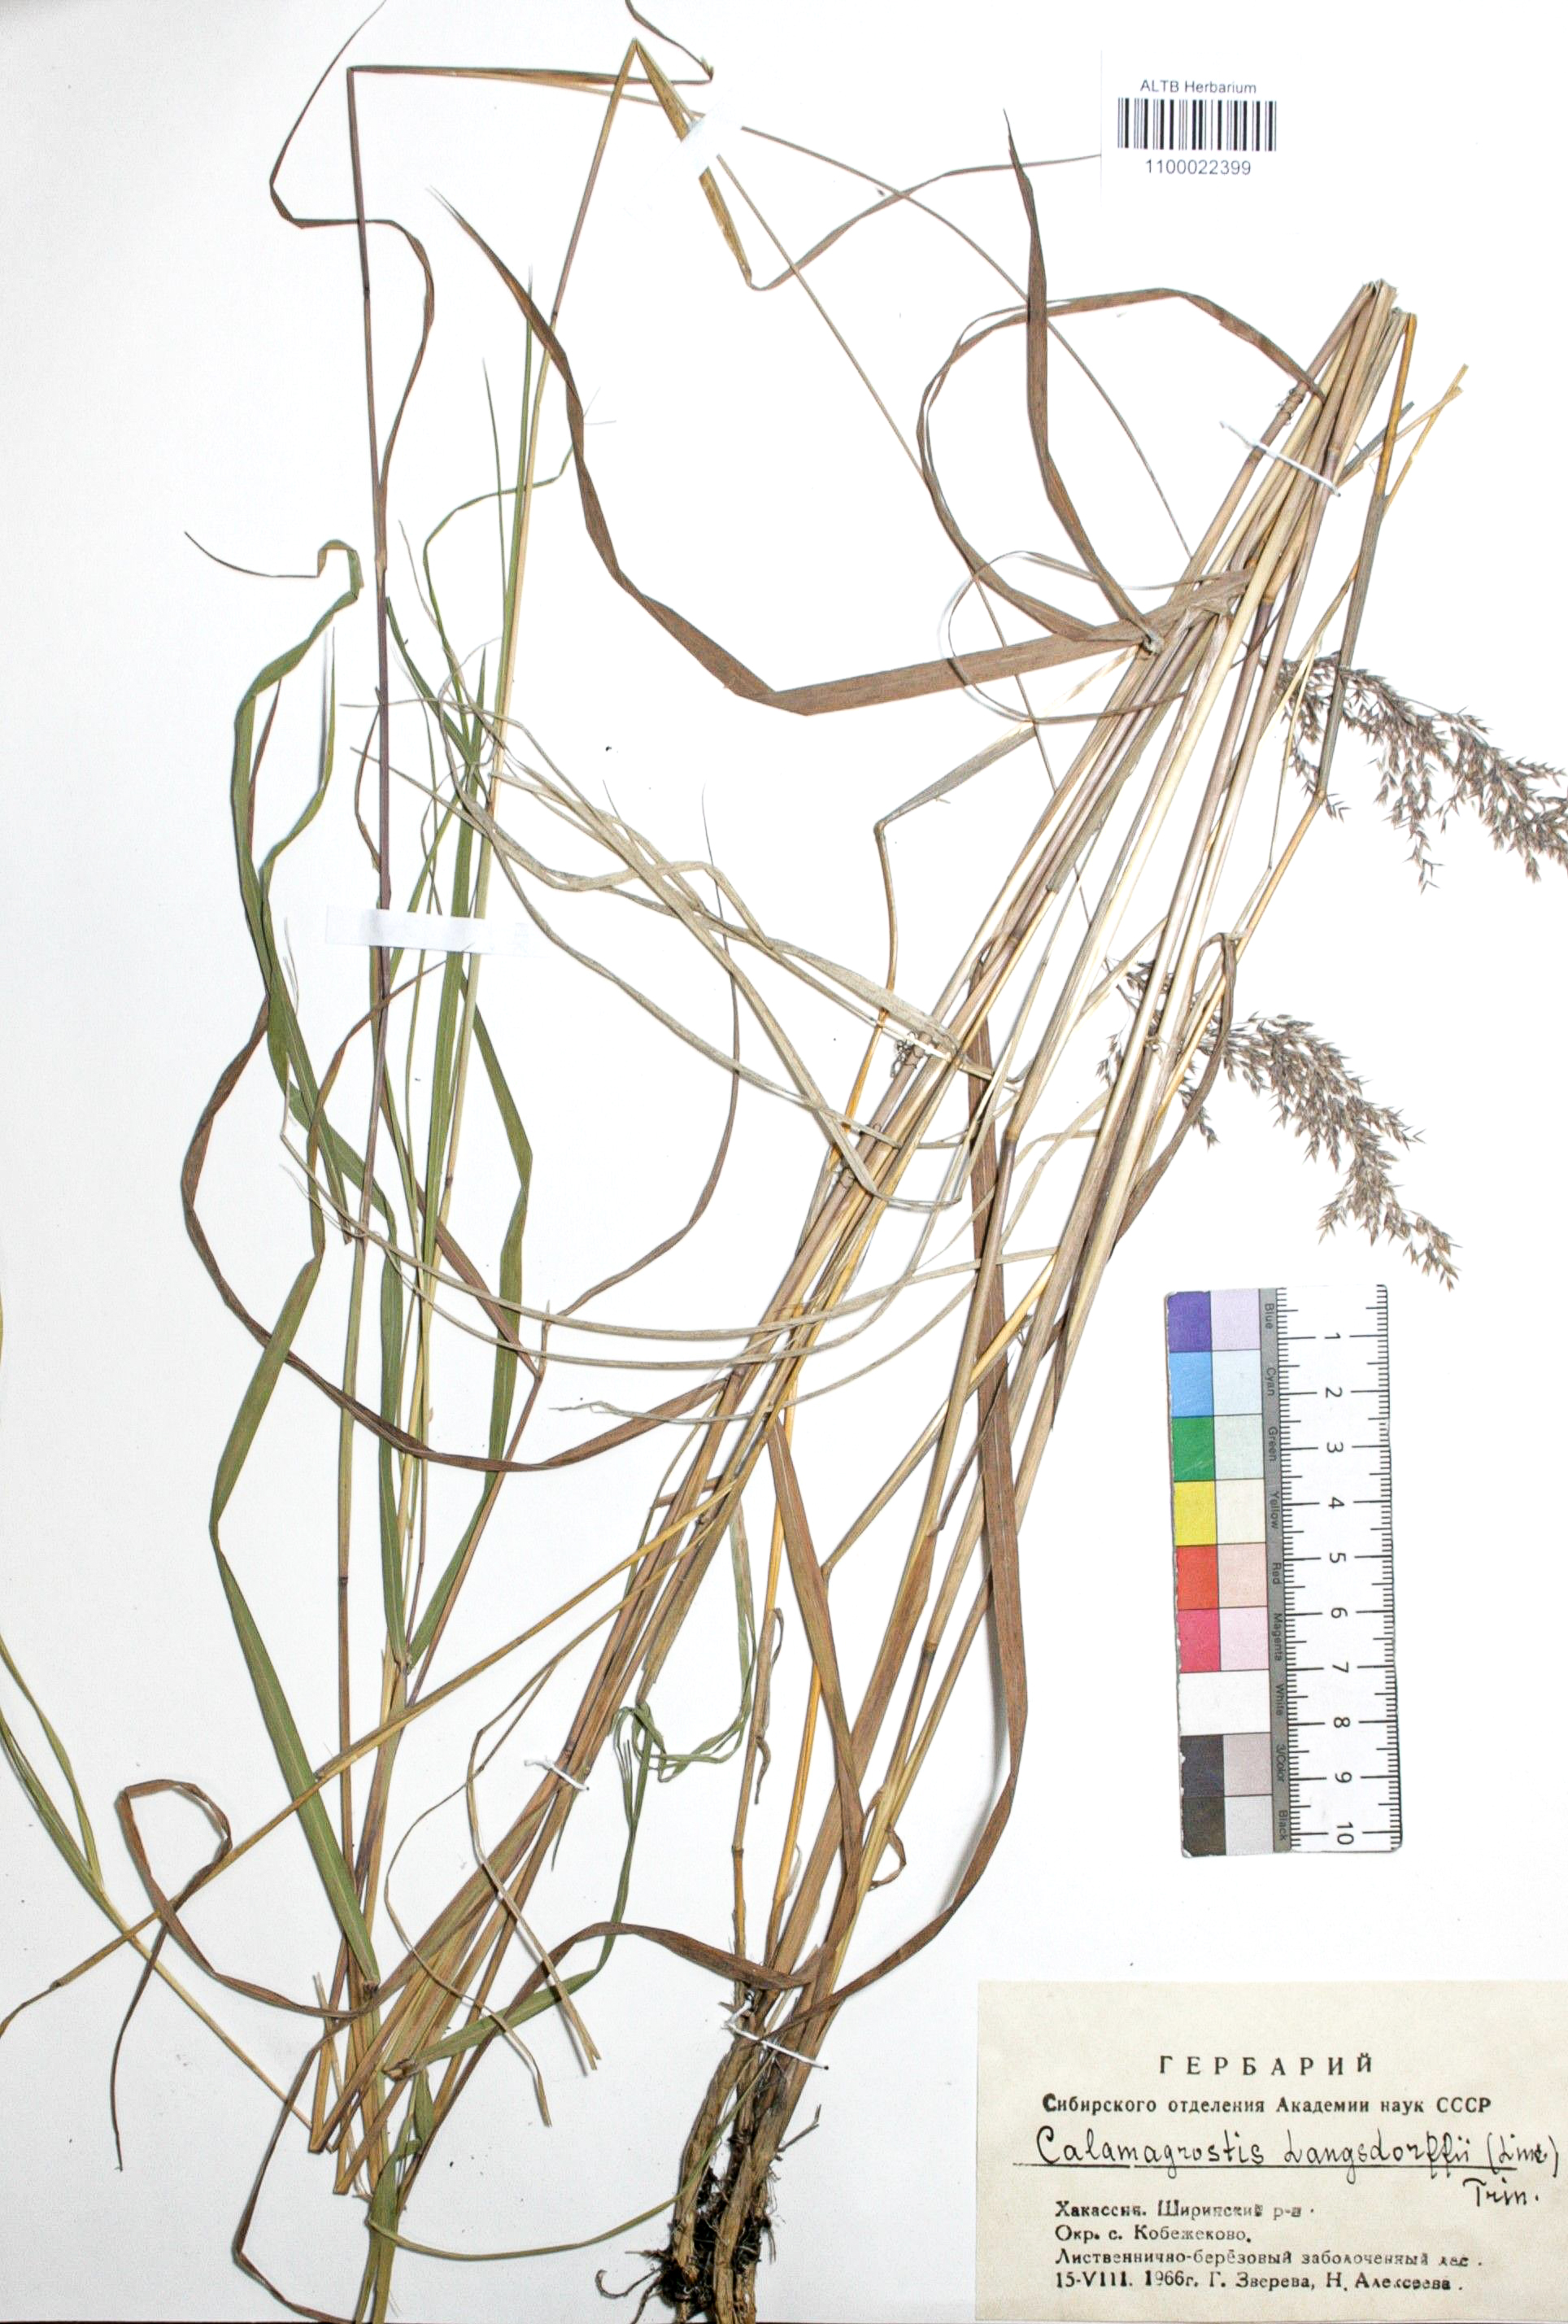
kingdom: Plantae
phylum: Tracheophyta
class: Liliopsida
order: Poales
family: Poaceae
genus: Calamagrostis
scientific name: Calamagrostis purpurea
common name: Scandinavian small-reed
